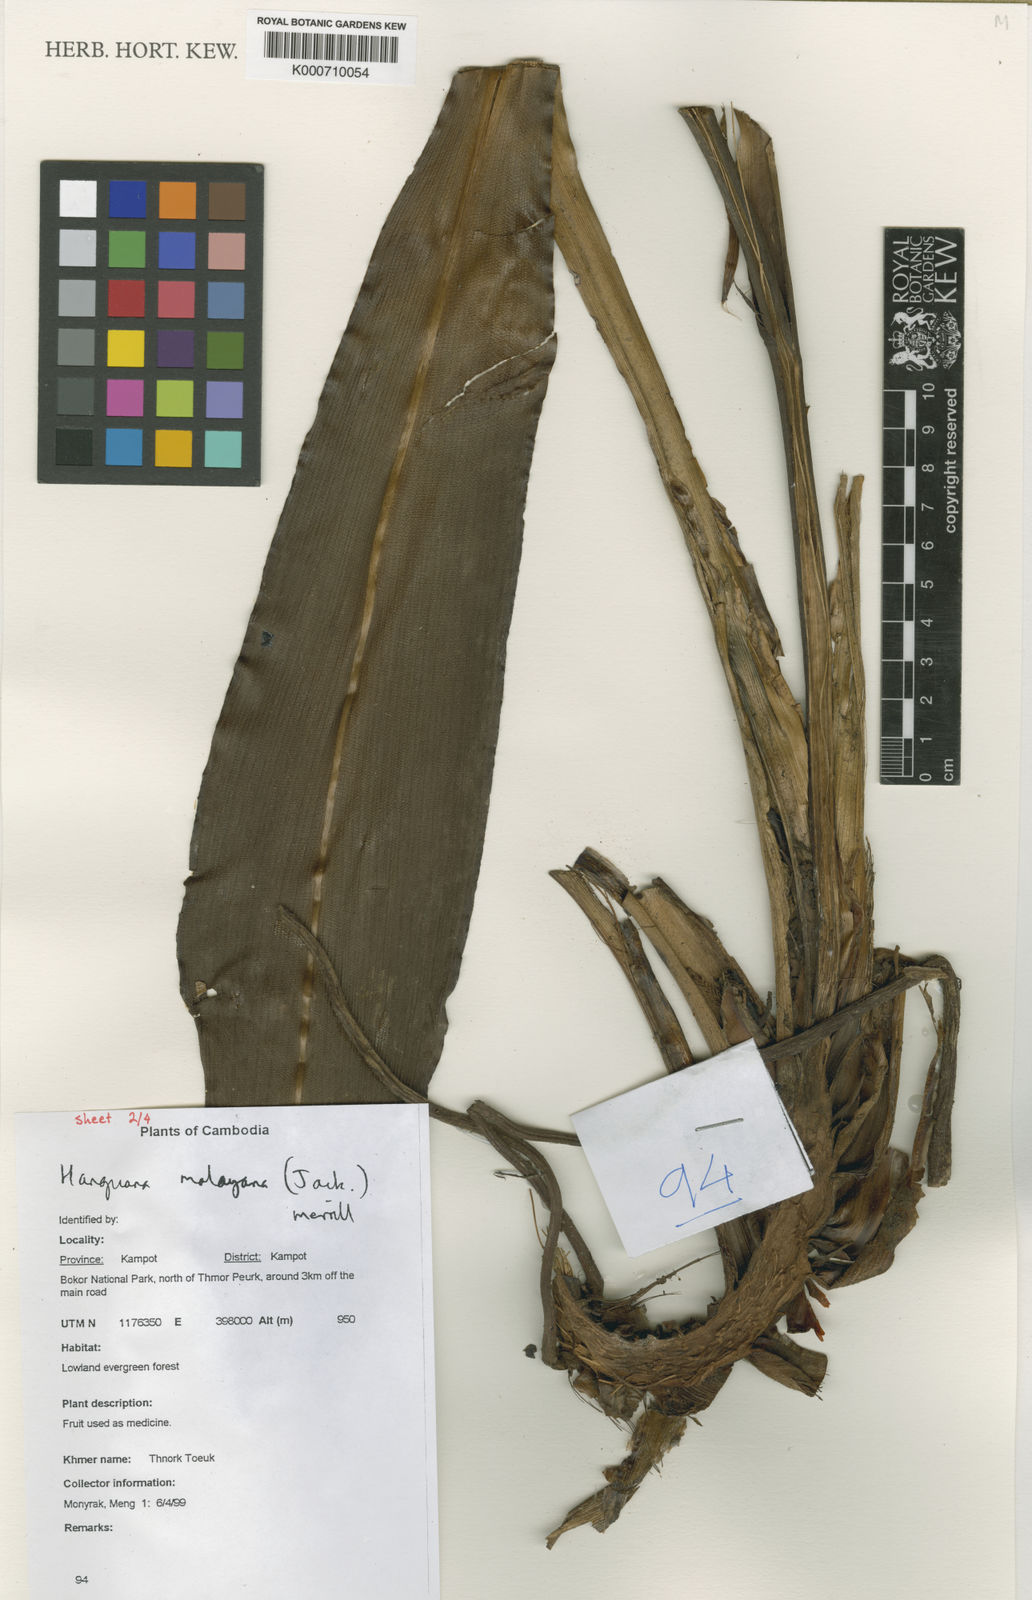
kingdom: Plantae
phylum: Tracheophyta
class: Liliopsida
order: Commelinales
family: Hanguanaceae
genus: Hanguana
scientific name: Hanguana malayana
